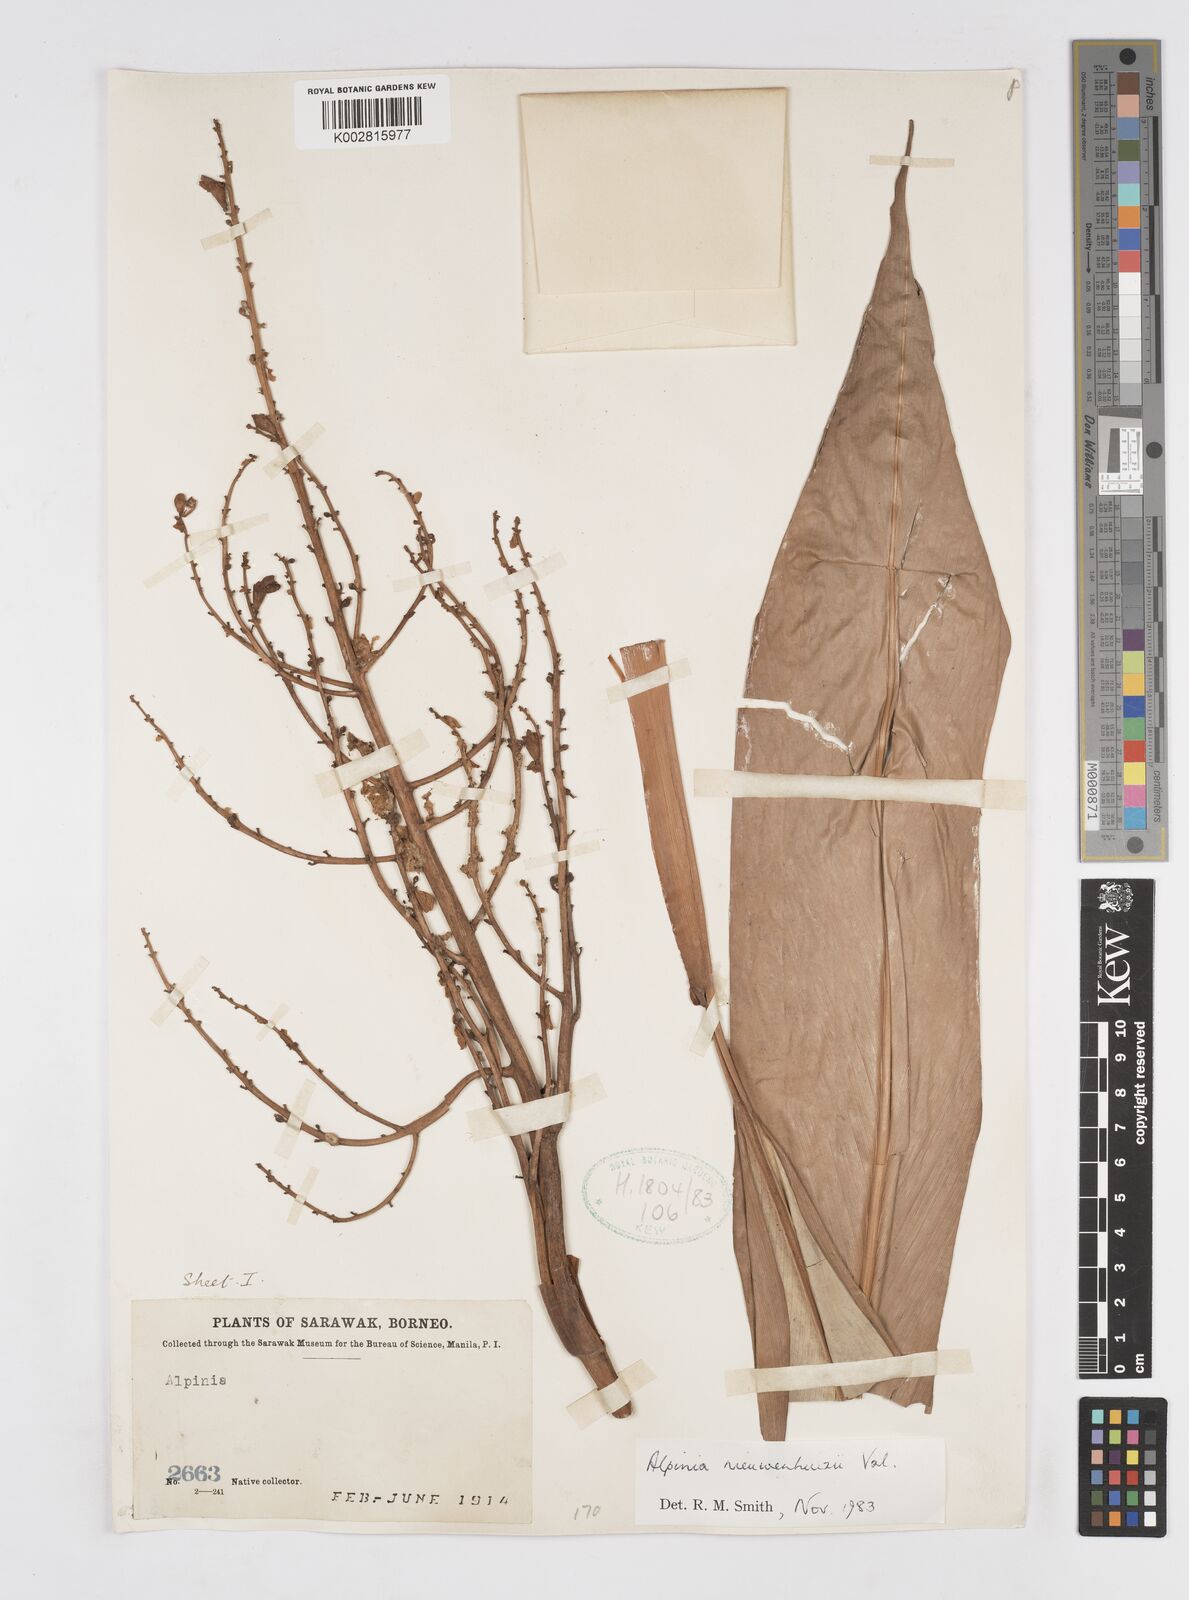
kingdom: Plantae
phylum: Tracheophyta
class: Liliopsida
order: Zingiberales
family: Zingiberaceae
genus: Alpinia
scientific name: Alpinia nieuwenhuizii
